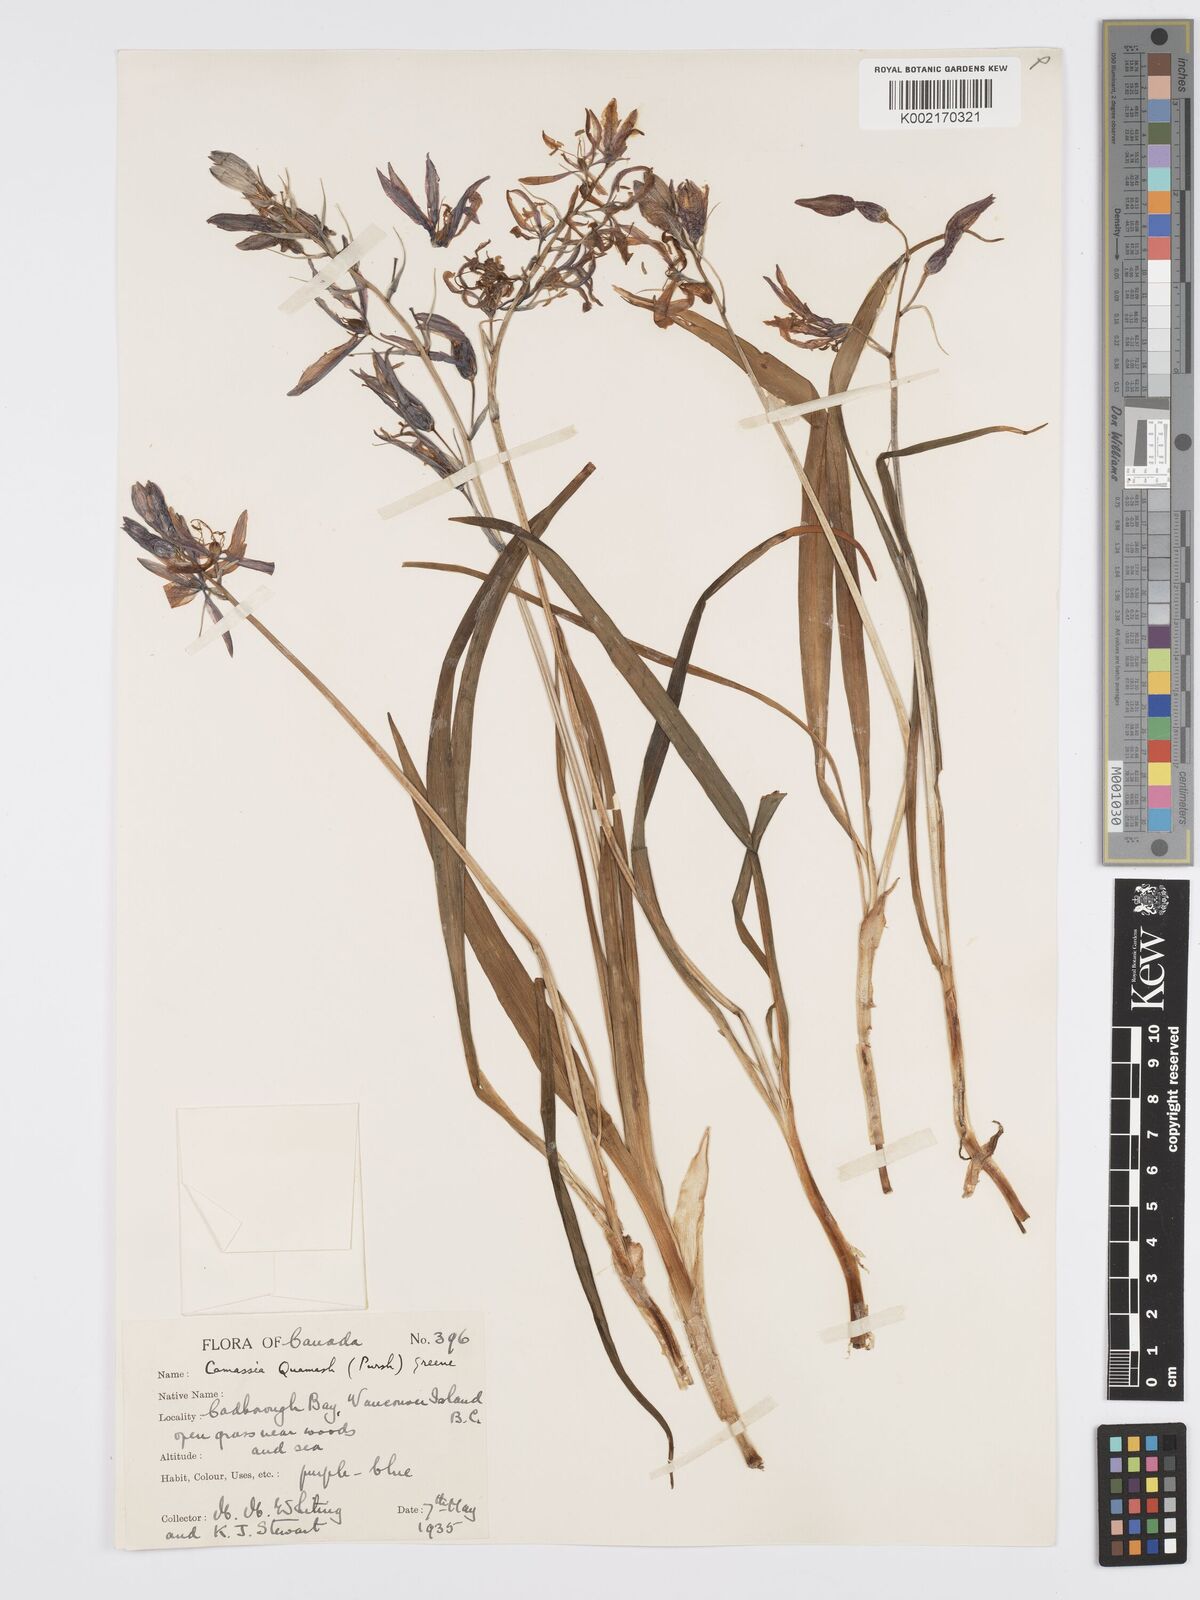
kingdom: Plantae
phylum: Tracheophyta
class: Liliopsida
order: Asparagales
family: Asparagaceae
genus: Camassia
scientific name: Camassia quamash
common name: Common camas
